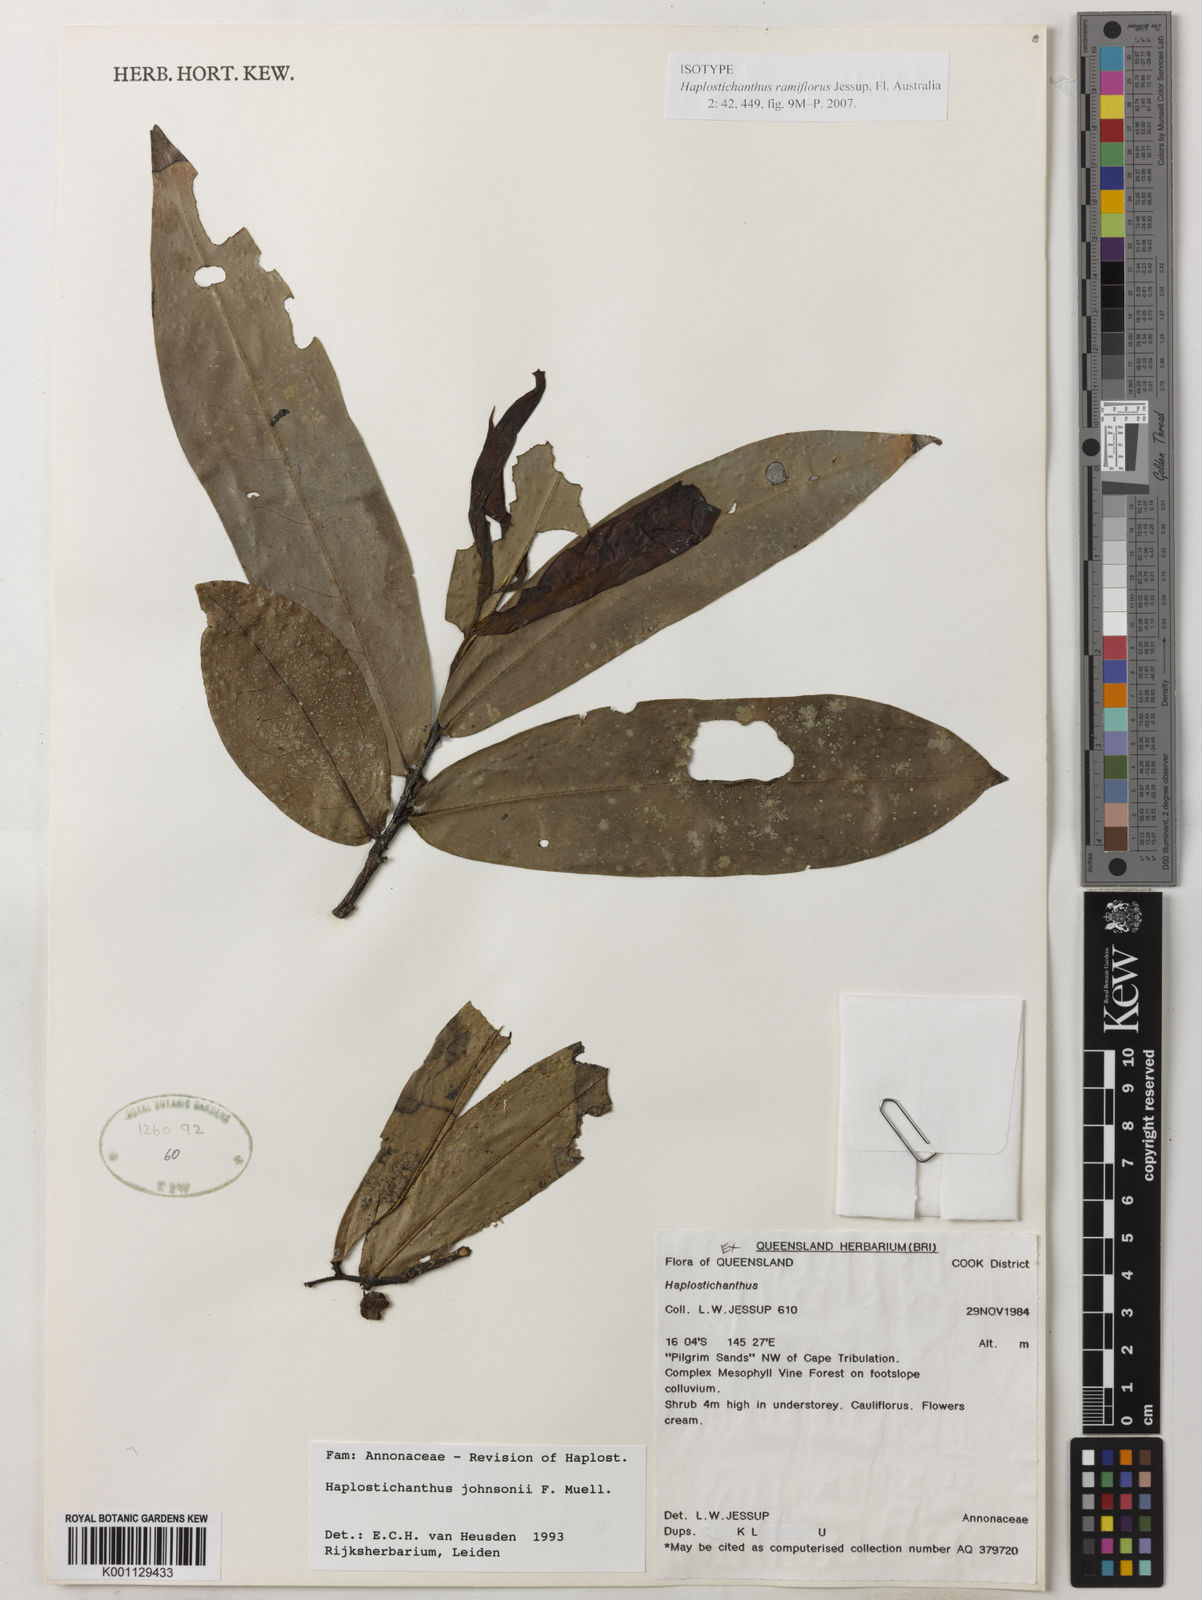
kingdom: Plantae
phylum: Tracheophyta
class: Magnoliopsida
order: Magnoliales
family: Annonaceae
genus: Polyalthia
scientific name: Polyalthia xanthocarpa
